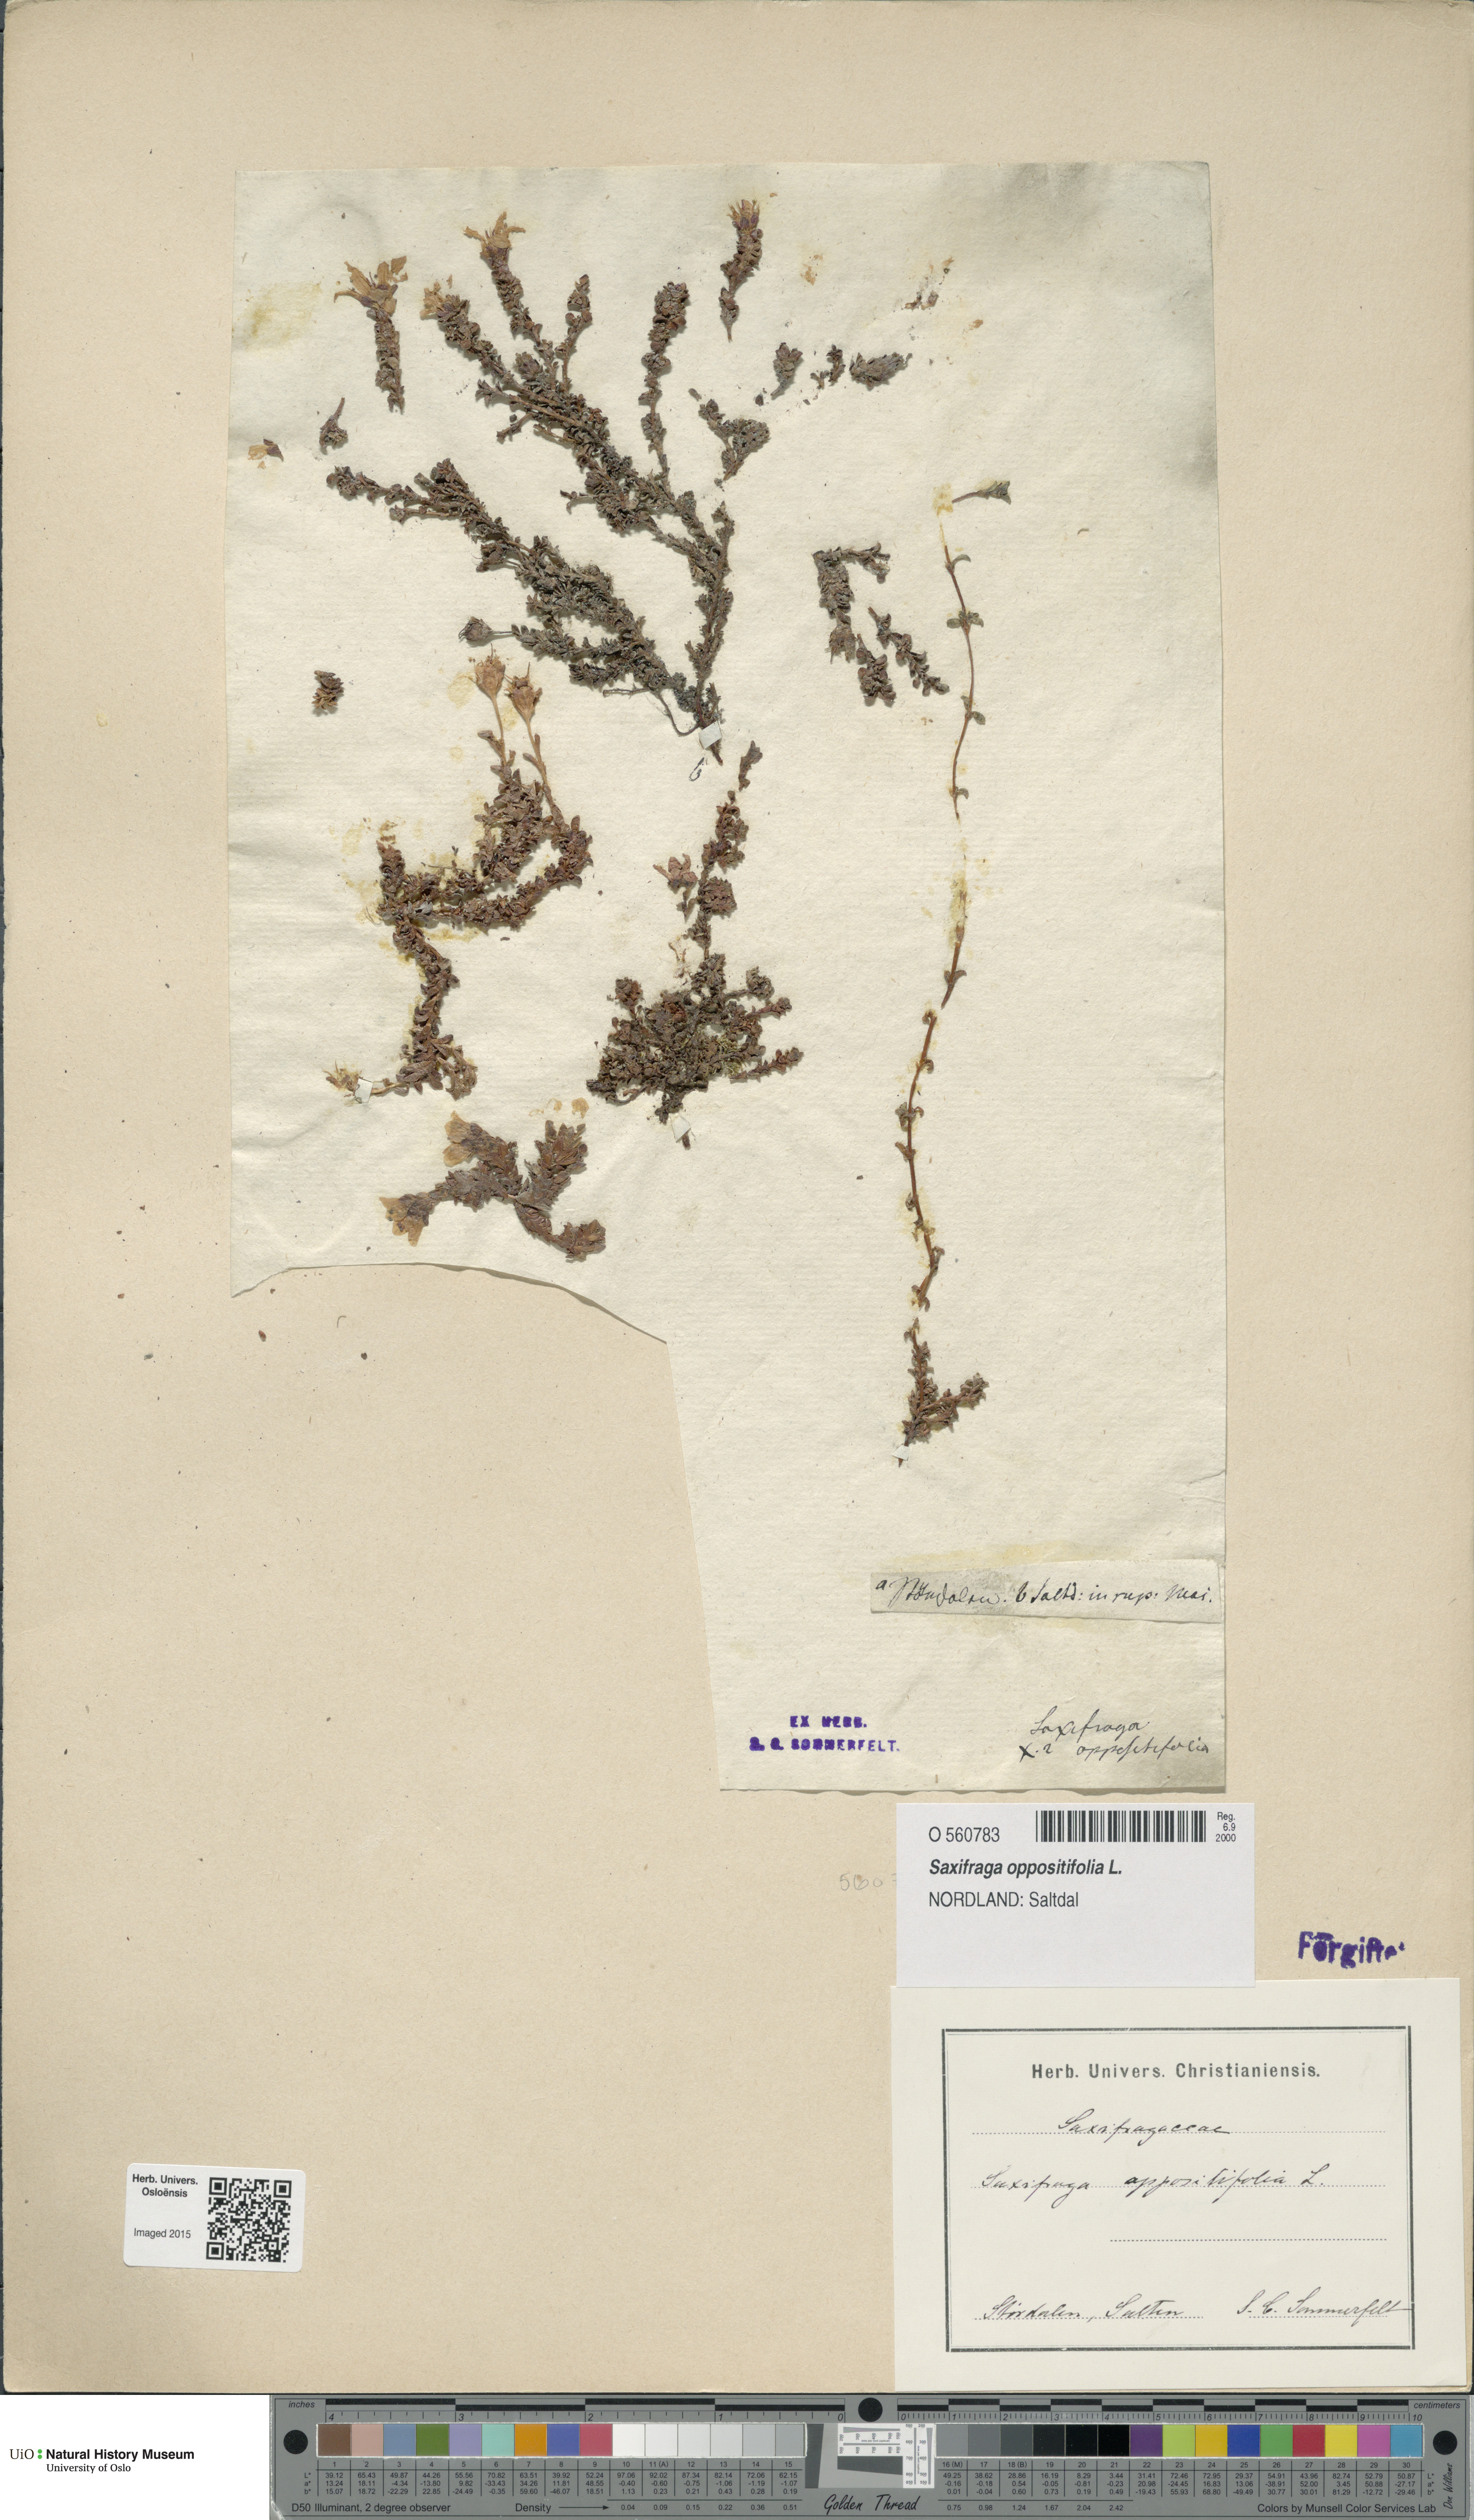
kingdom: Plantae
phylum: Tracheophyta
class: Magnoliopsida
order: Saxifragales
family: Saxifragaceae
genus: Saxifraga
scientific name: Saxifraga oppositifolia
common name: Purple saxifrage
